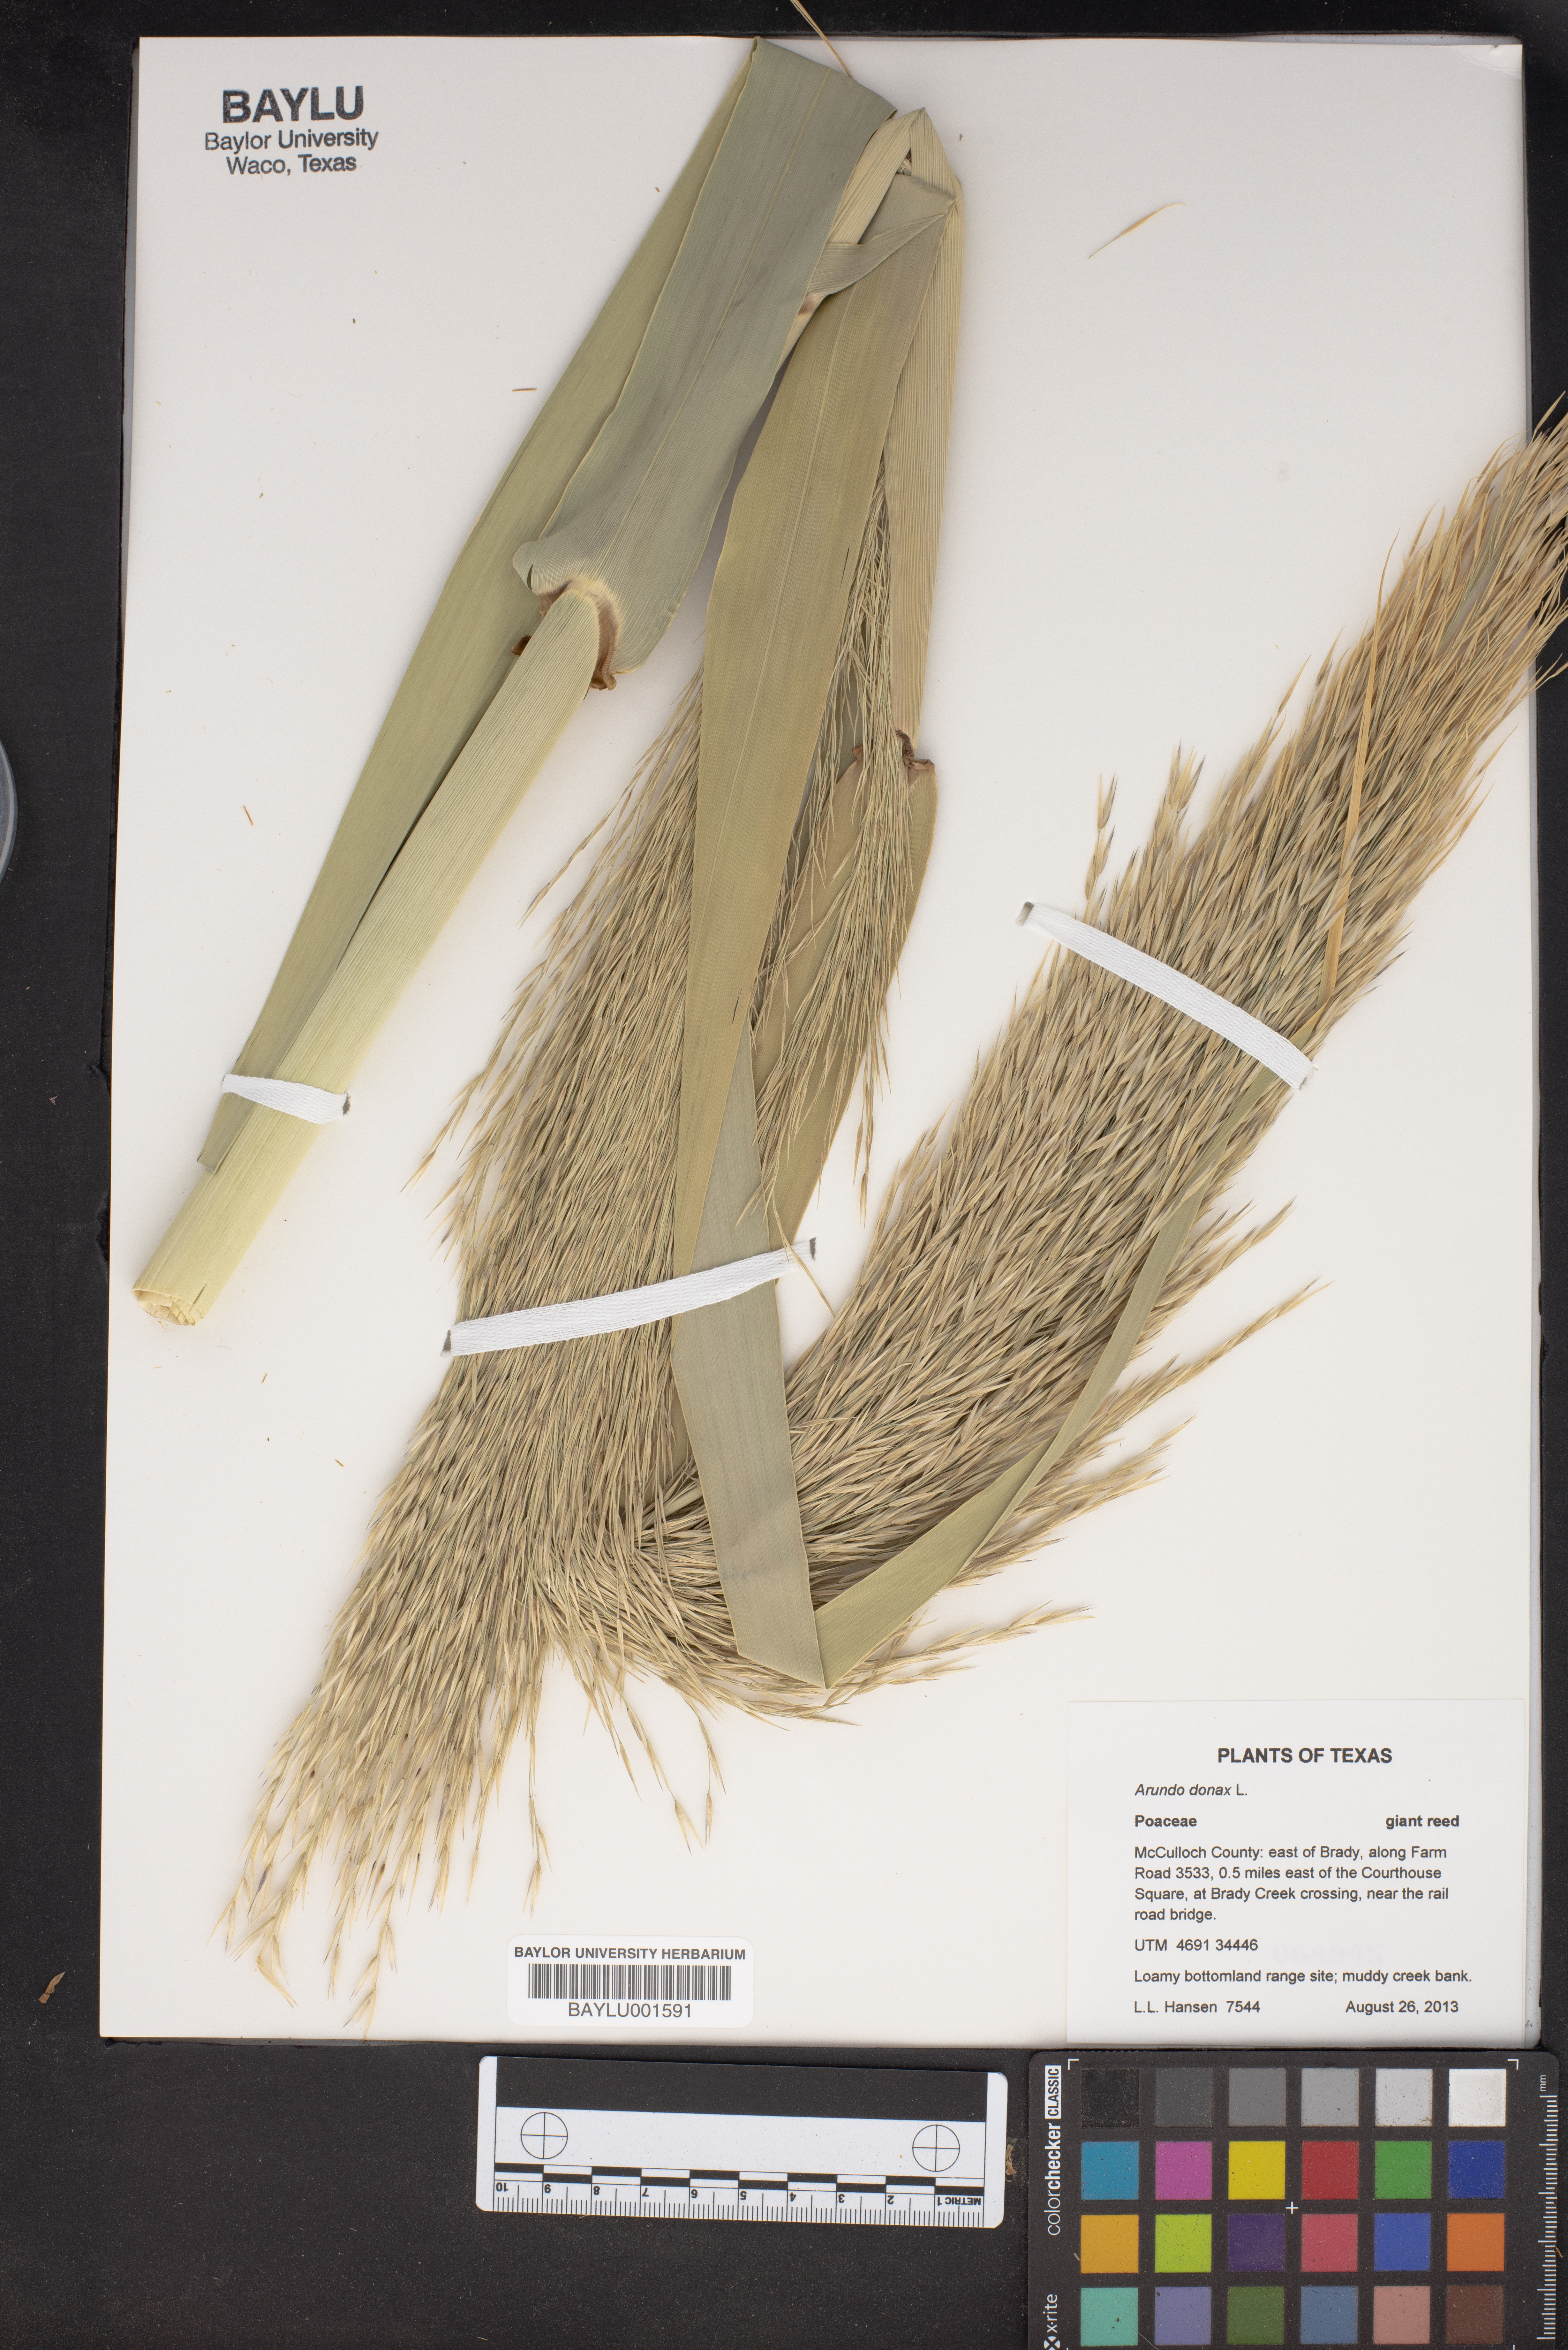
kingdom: Plantae
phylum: Tracheophyta
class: Liliopsida
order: Poales
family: Poaceae
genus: Arundo
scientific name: Arundo donax
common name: Giant reed
